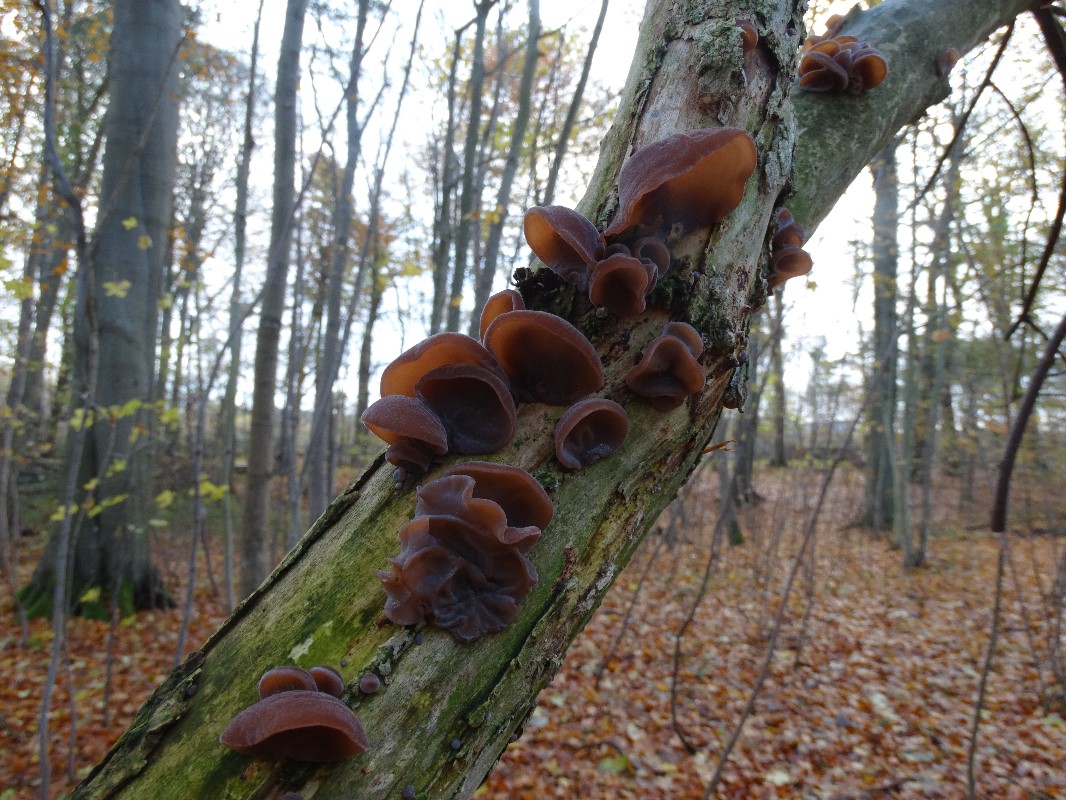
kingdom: Fungi
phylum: Basidiomycota
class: Agaricomycetes
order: Auriculariales
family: Auriculariaceae
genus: Auricularia
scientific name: Auricularia auricula-judae
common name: almindelig judasøre
